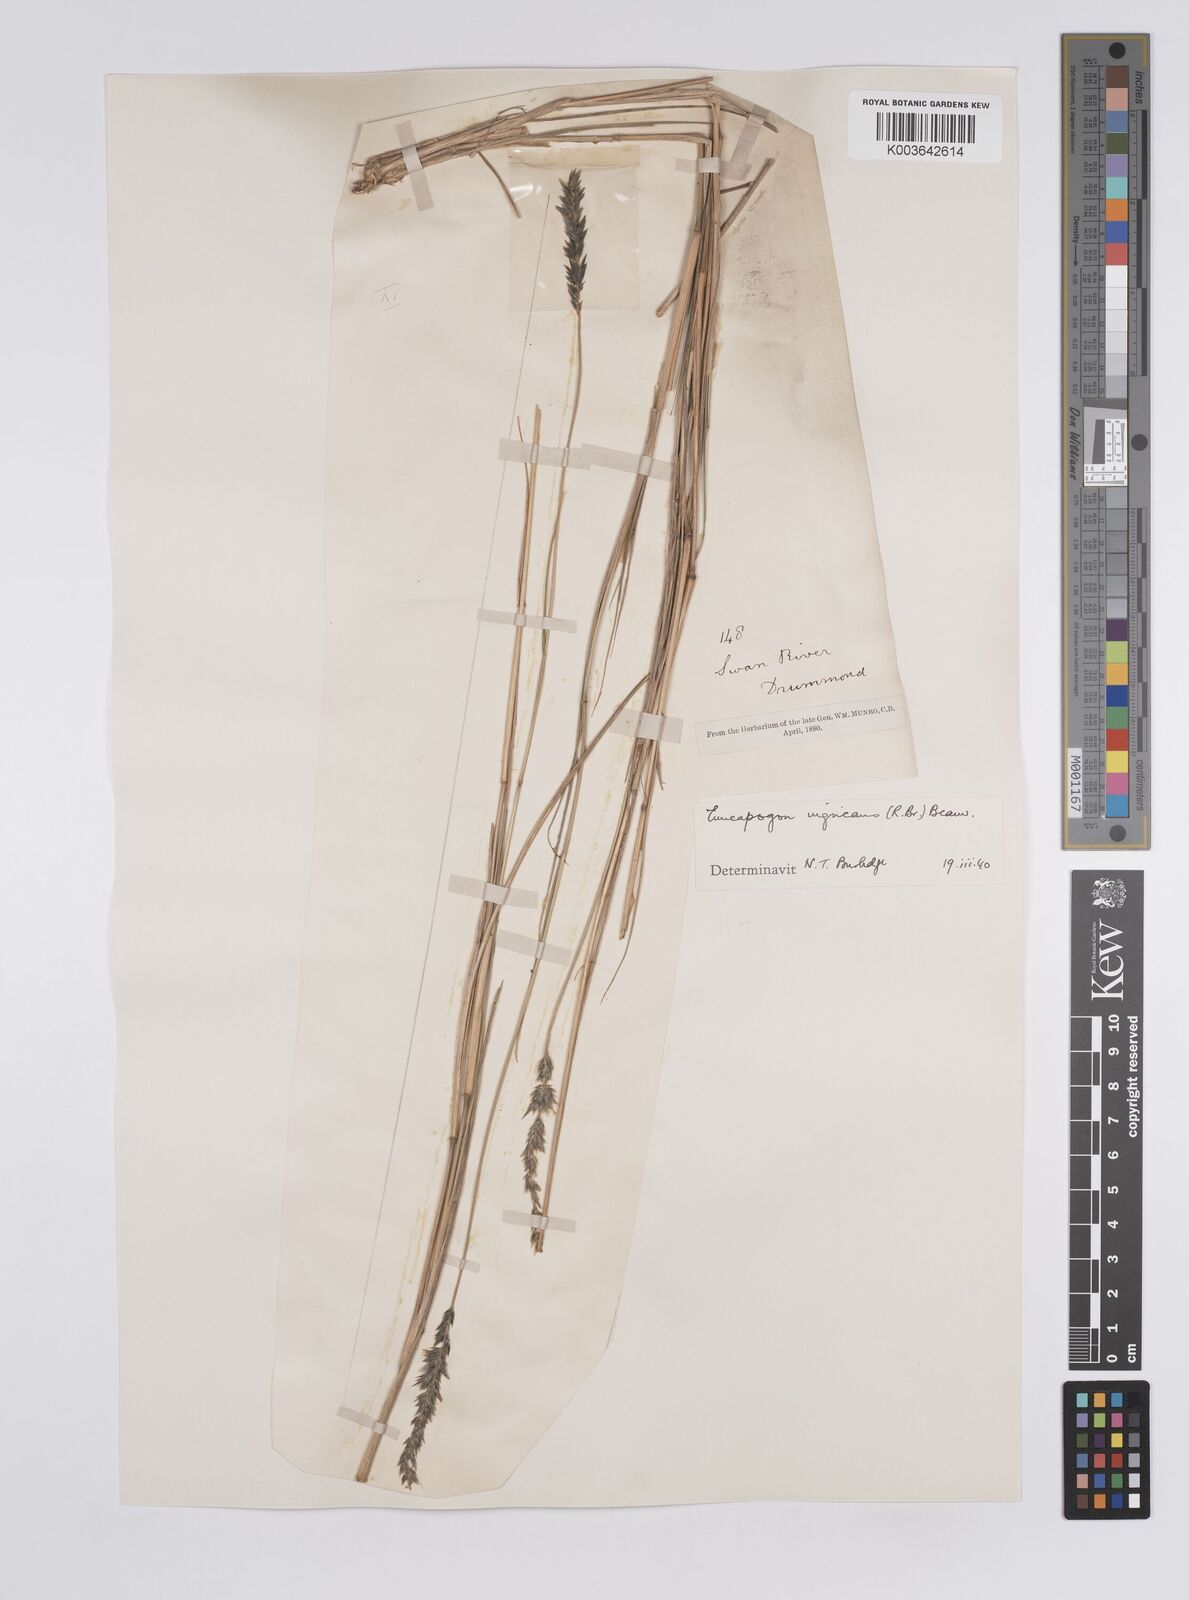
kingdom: Plantae
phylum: Tracheophyta
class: Liliopsida
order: Poales
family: Poaceae
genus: Enneapogon
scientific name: Enneapogon nigricans
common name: Pappus grass
